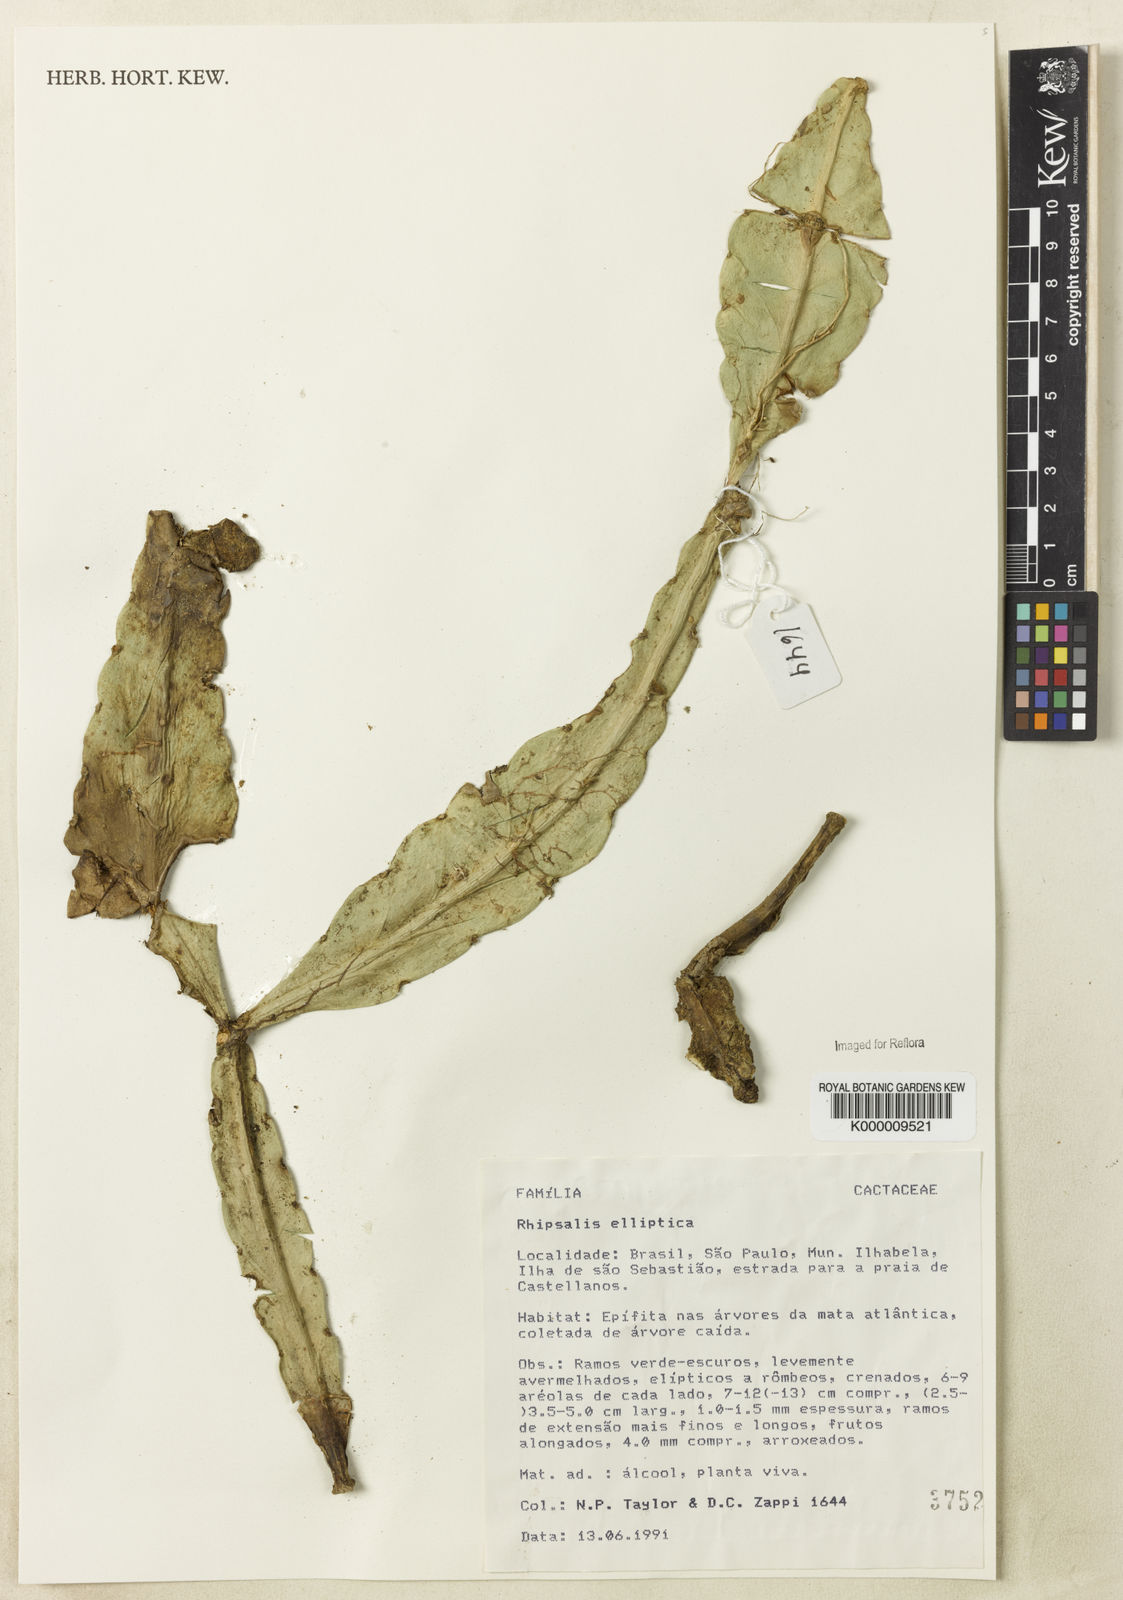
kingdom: Plantae
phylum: Tracheophyta
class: Magnoliopsida
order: Caryophyllales
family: Cactaceae
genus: Rhipsalis
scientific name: Rhipsalis elliptica
